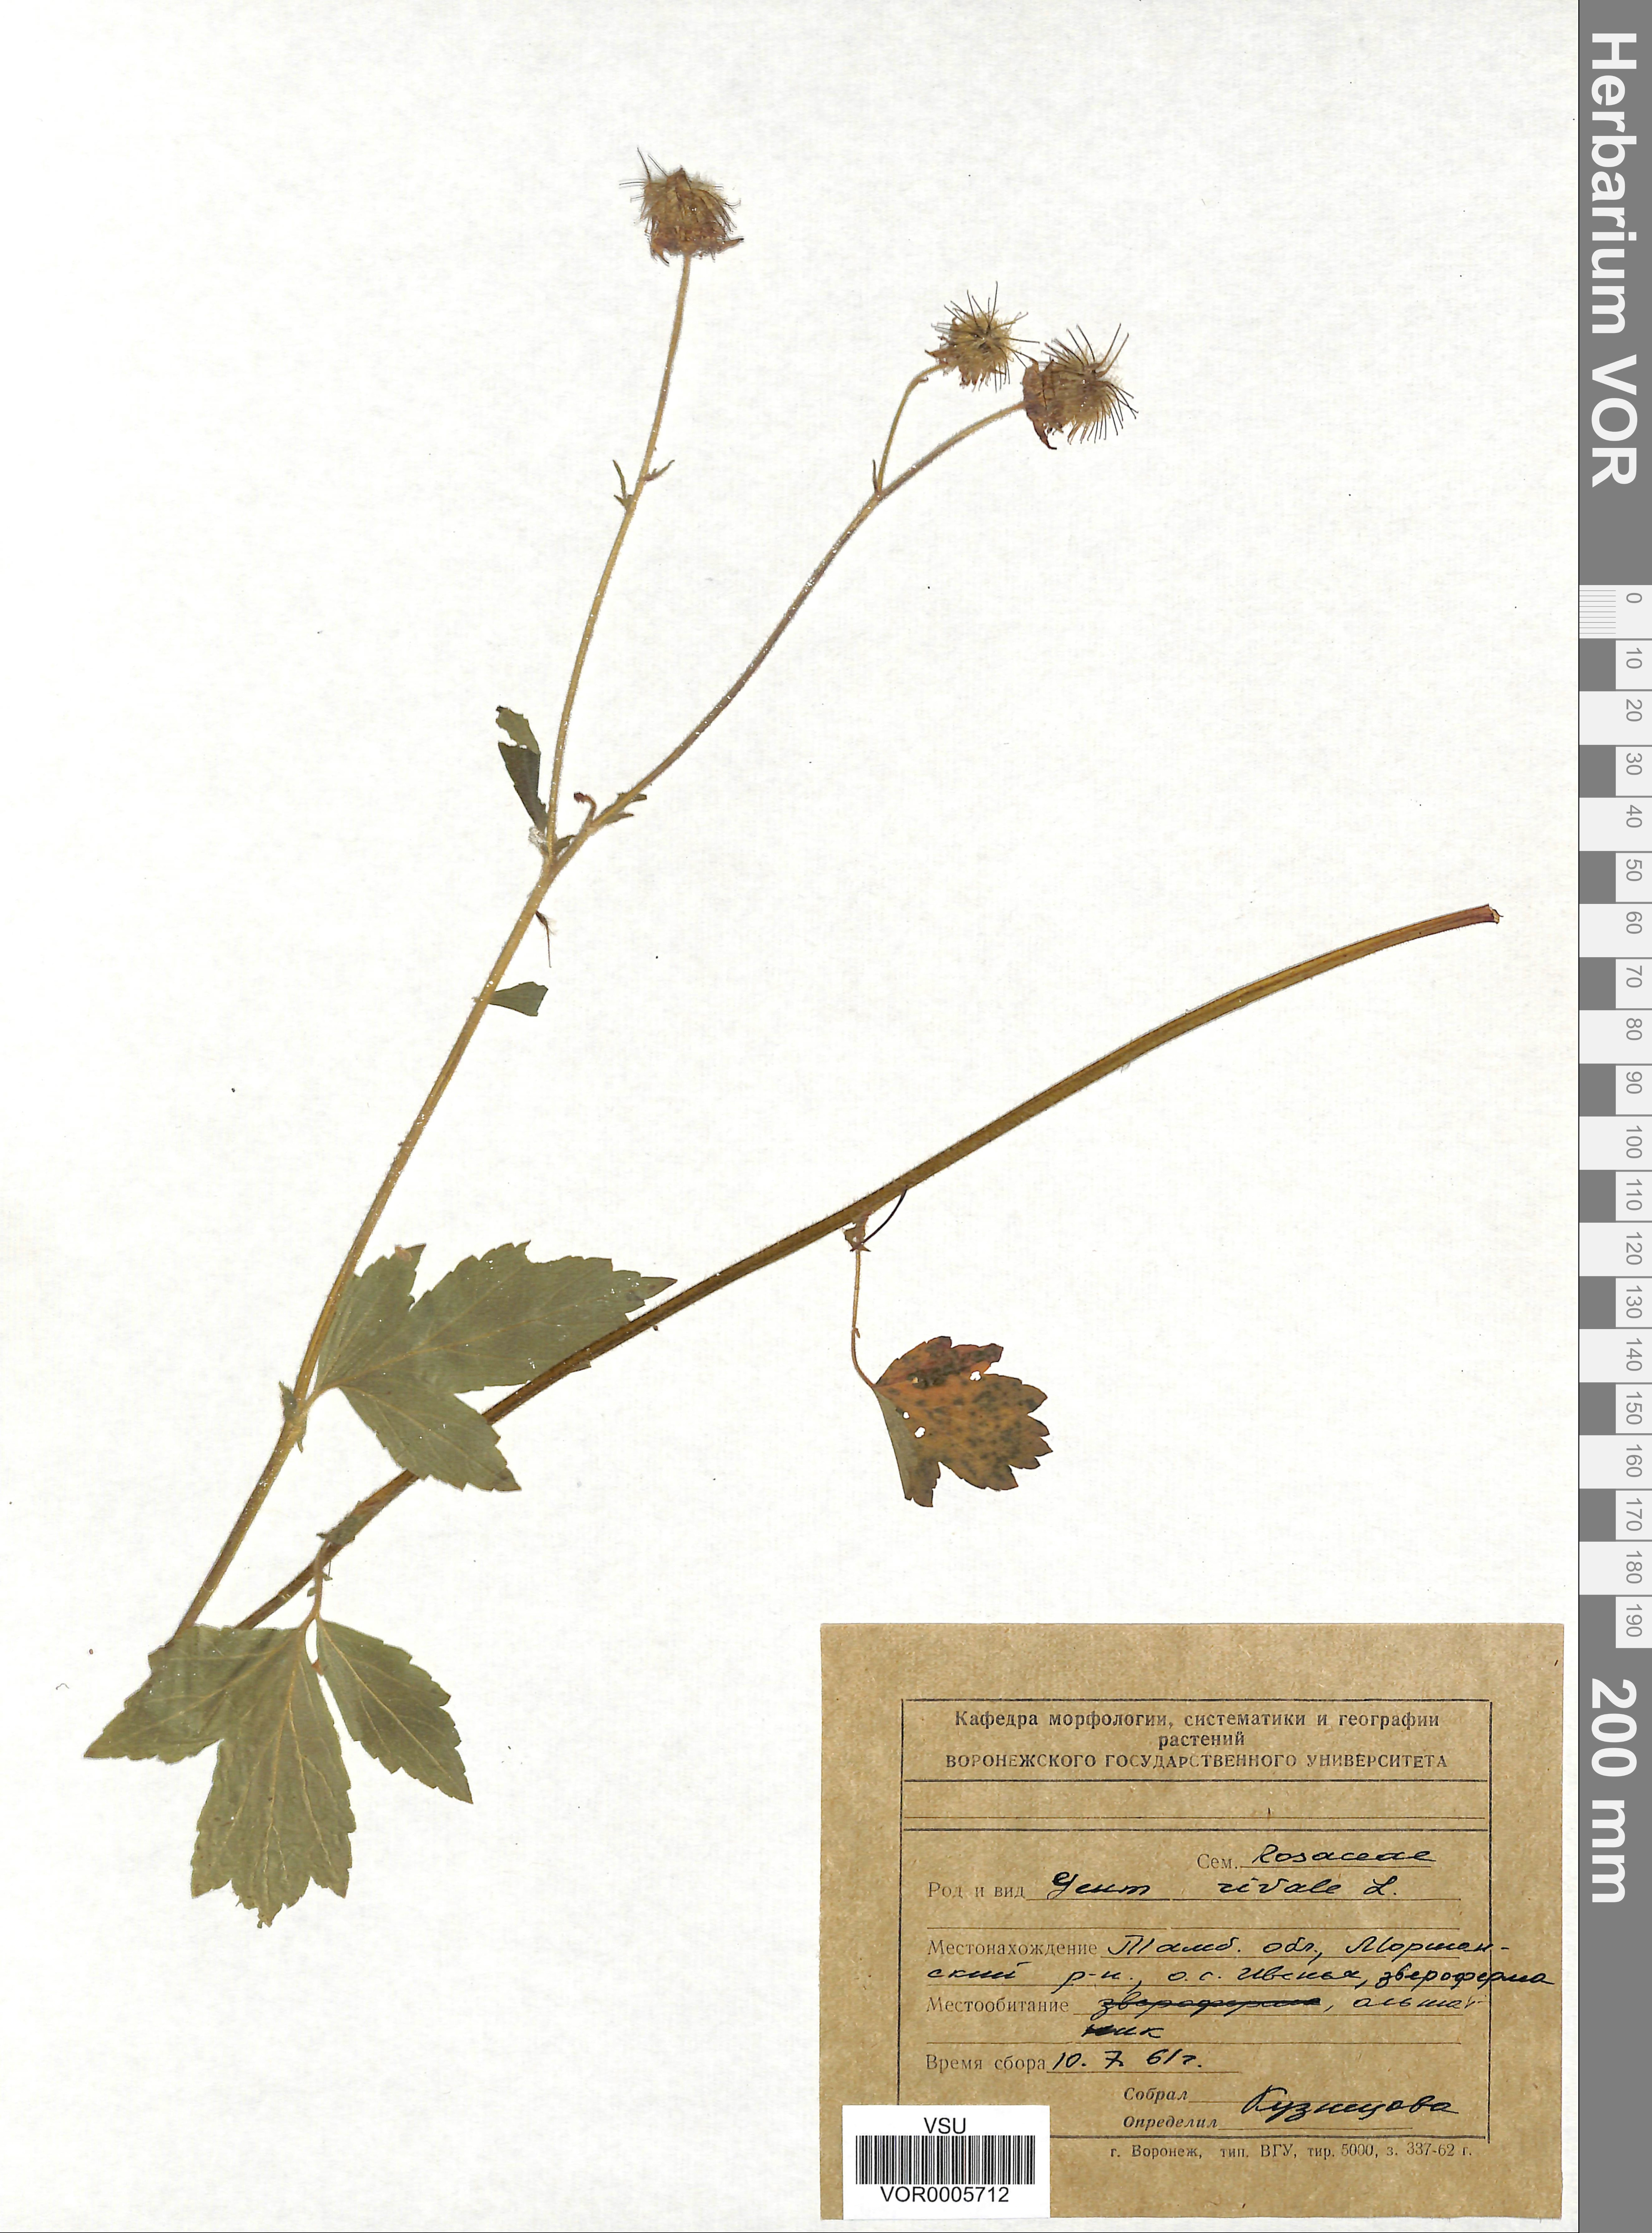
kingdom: Plantae
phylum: Tracheophyta
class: Magnoliopsida
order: Rosales
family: Rosaceae
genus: Geum
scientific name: Geum rivale
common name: Water avens
